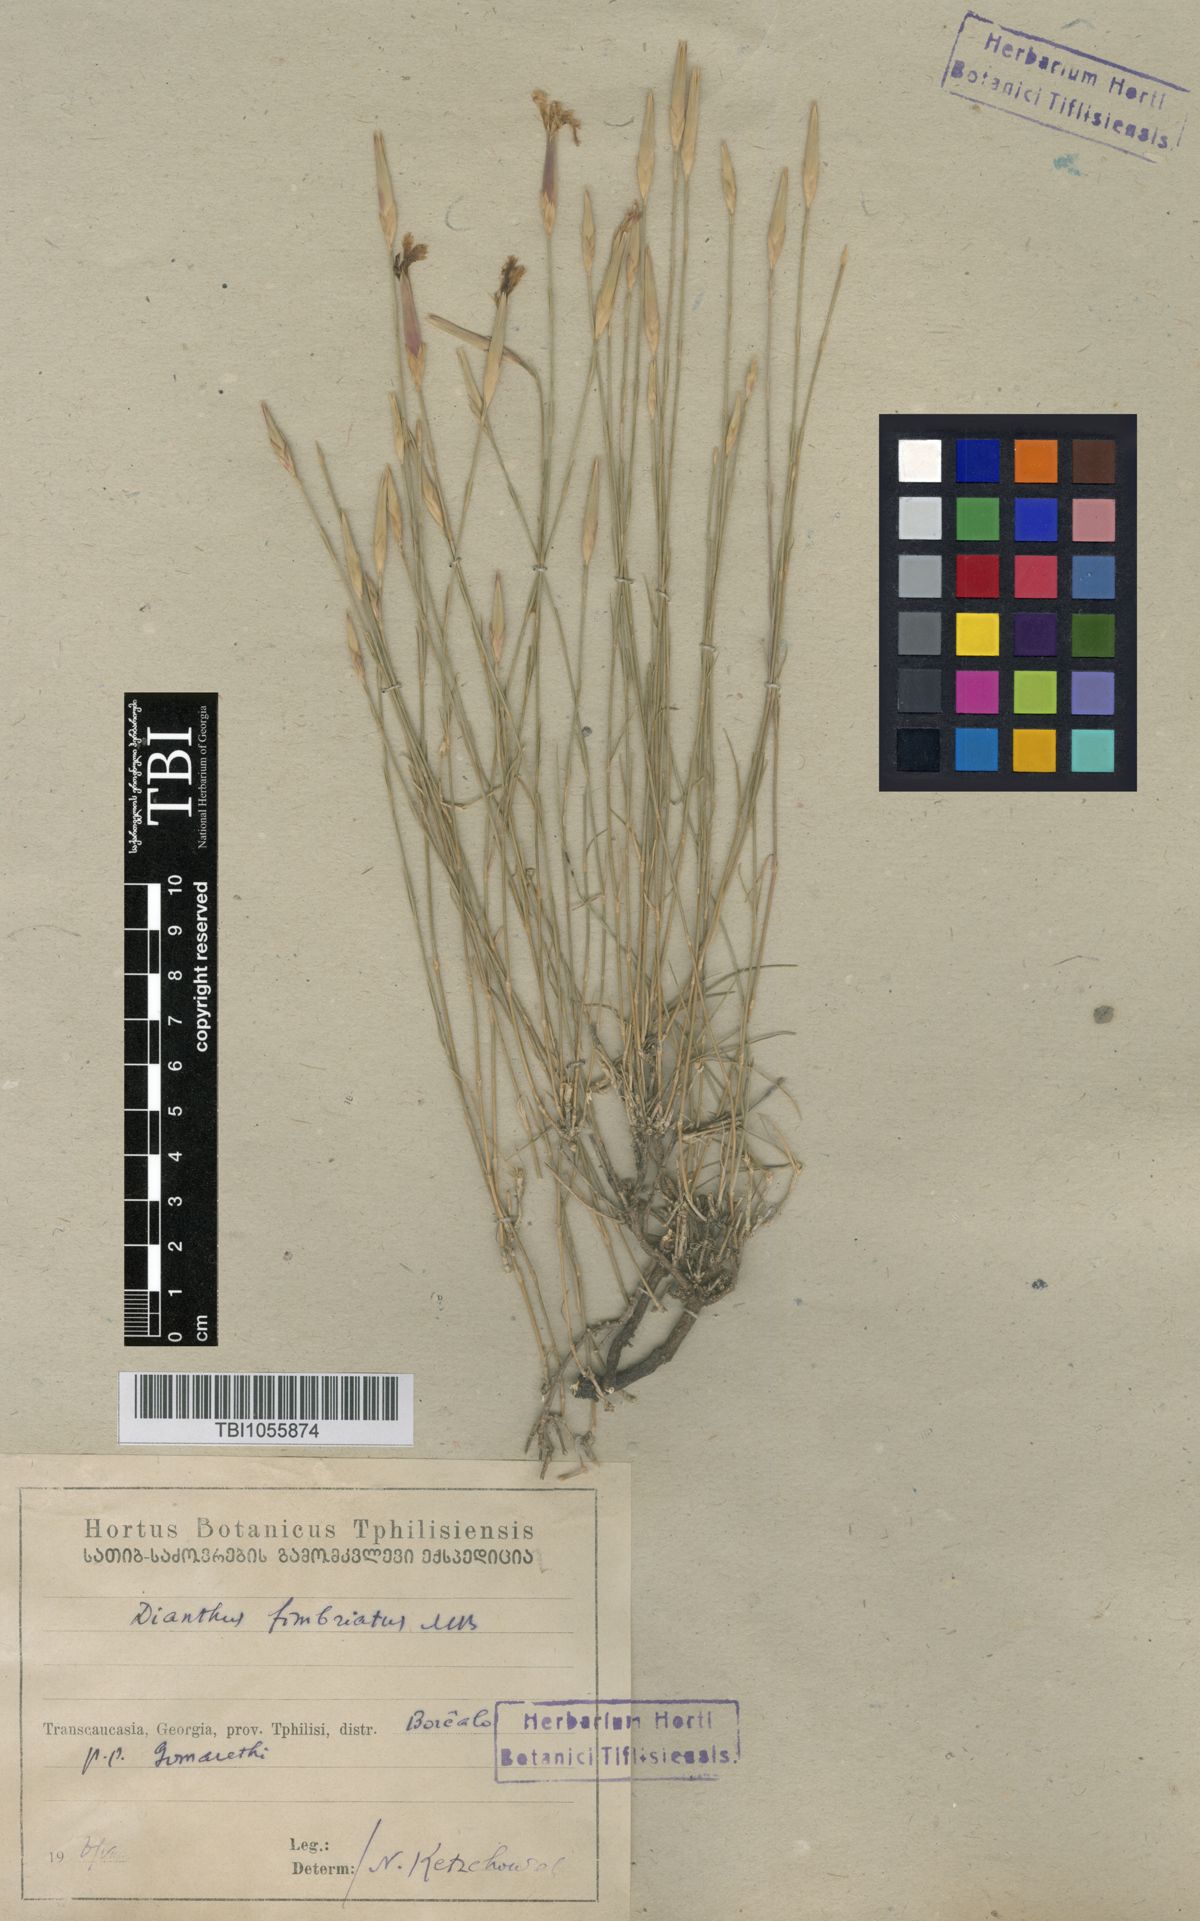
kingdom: Plantae
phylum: Tracheophyta
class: Magnoliopsida
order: Caryophyllales
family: Caryophyllaceae
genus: Dianthus
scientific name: Dianthus orientalis
